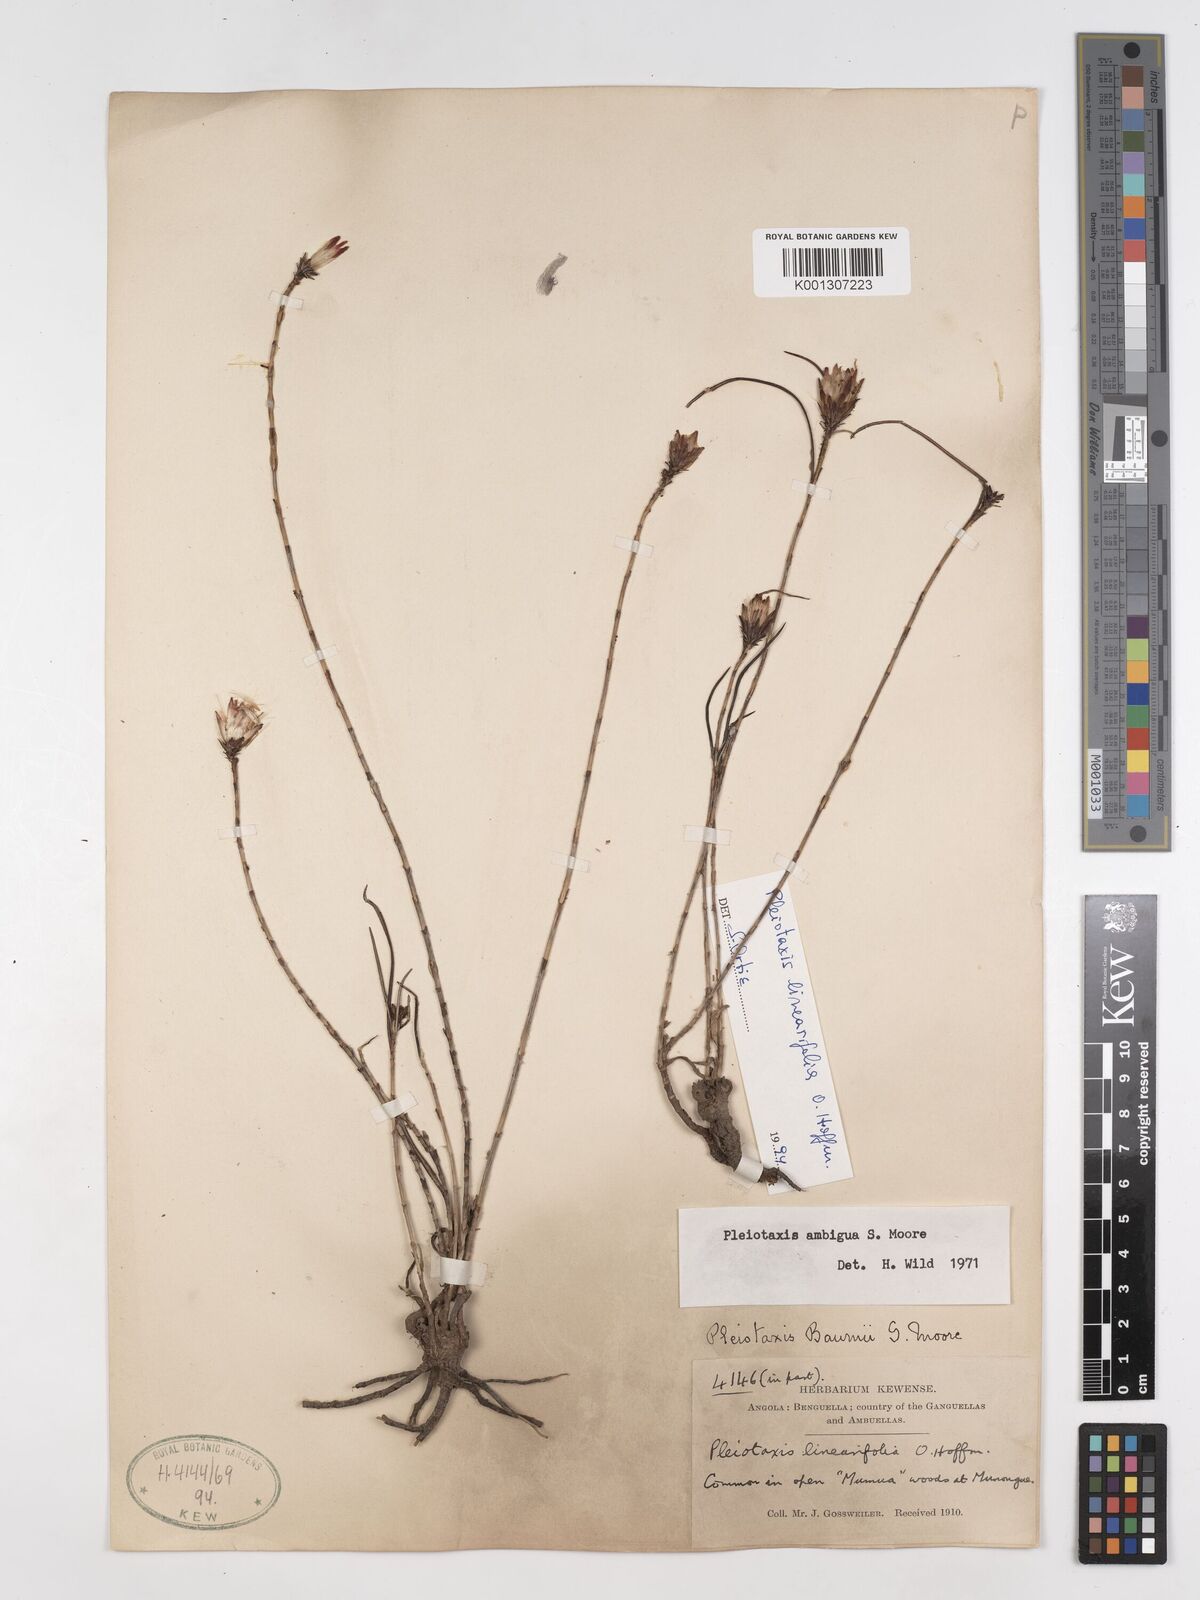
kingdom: Plantae
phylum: Tracheophyta
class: Magnoliopsida
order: Asterales
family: Asteraceae
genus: Pleiotaxis
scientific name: Pleiotaxis huillensis
